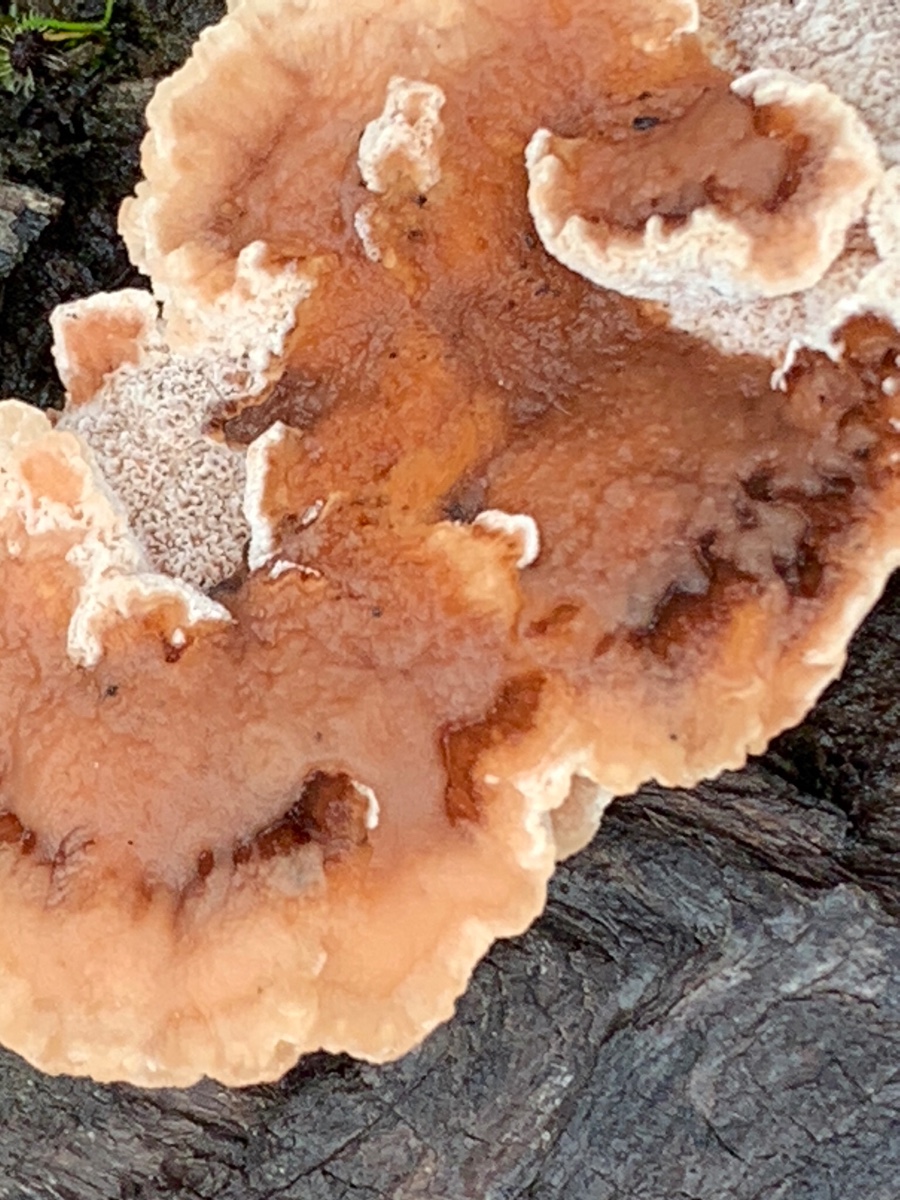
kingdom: Fungi
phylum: Basidiomycota
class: Agaricomycetes
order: Polyporales
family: Podoscyphaceae
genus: Abortiporus
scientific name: Abortiporus biennis
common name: rødmende pjalteporesvamp
